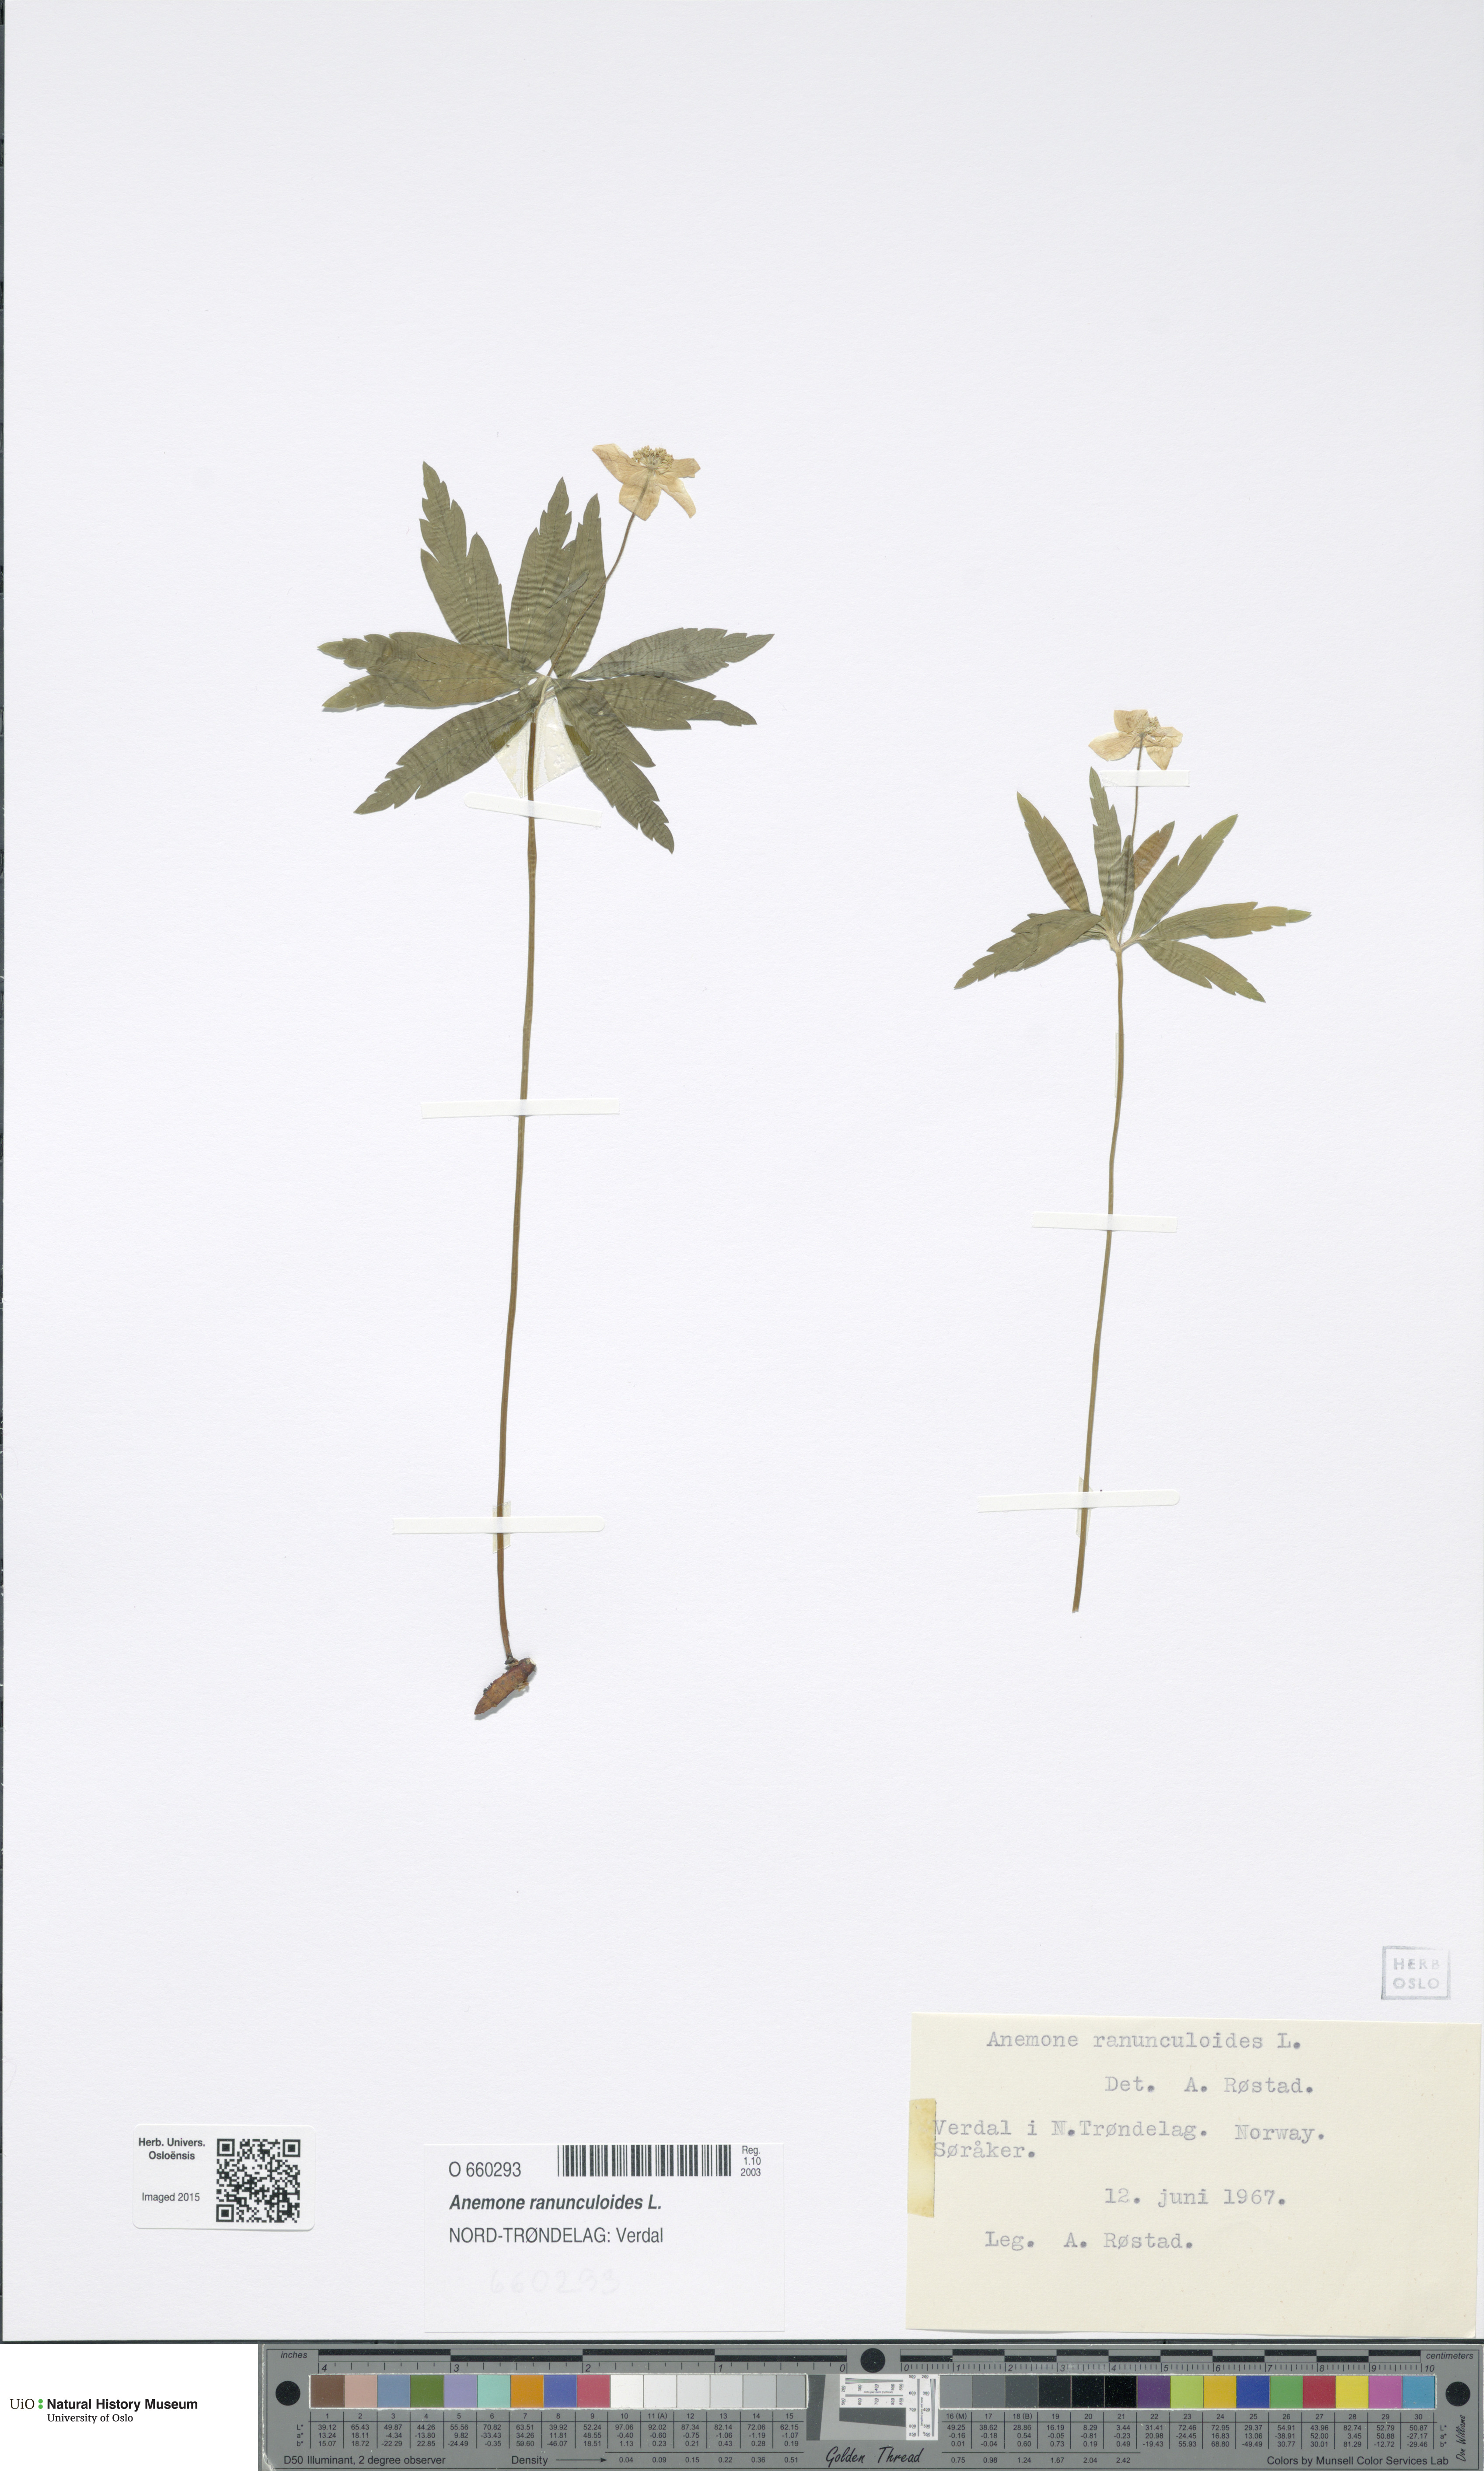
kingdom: Plantae
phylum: Tracheophyta
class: Magnoliopsida
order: Ranunculales
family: Ranunculaceae
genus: Anemone
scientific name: Anemone ranunculoides
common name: Yellow anemone
